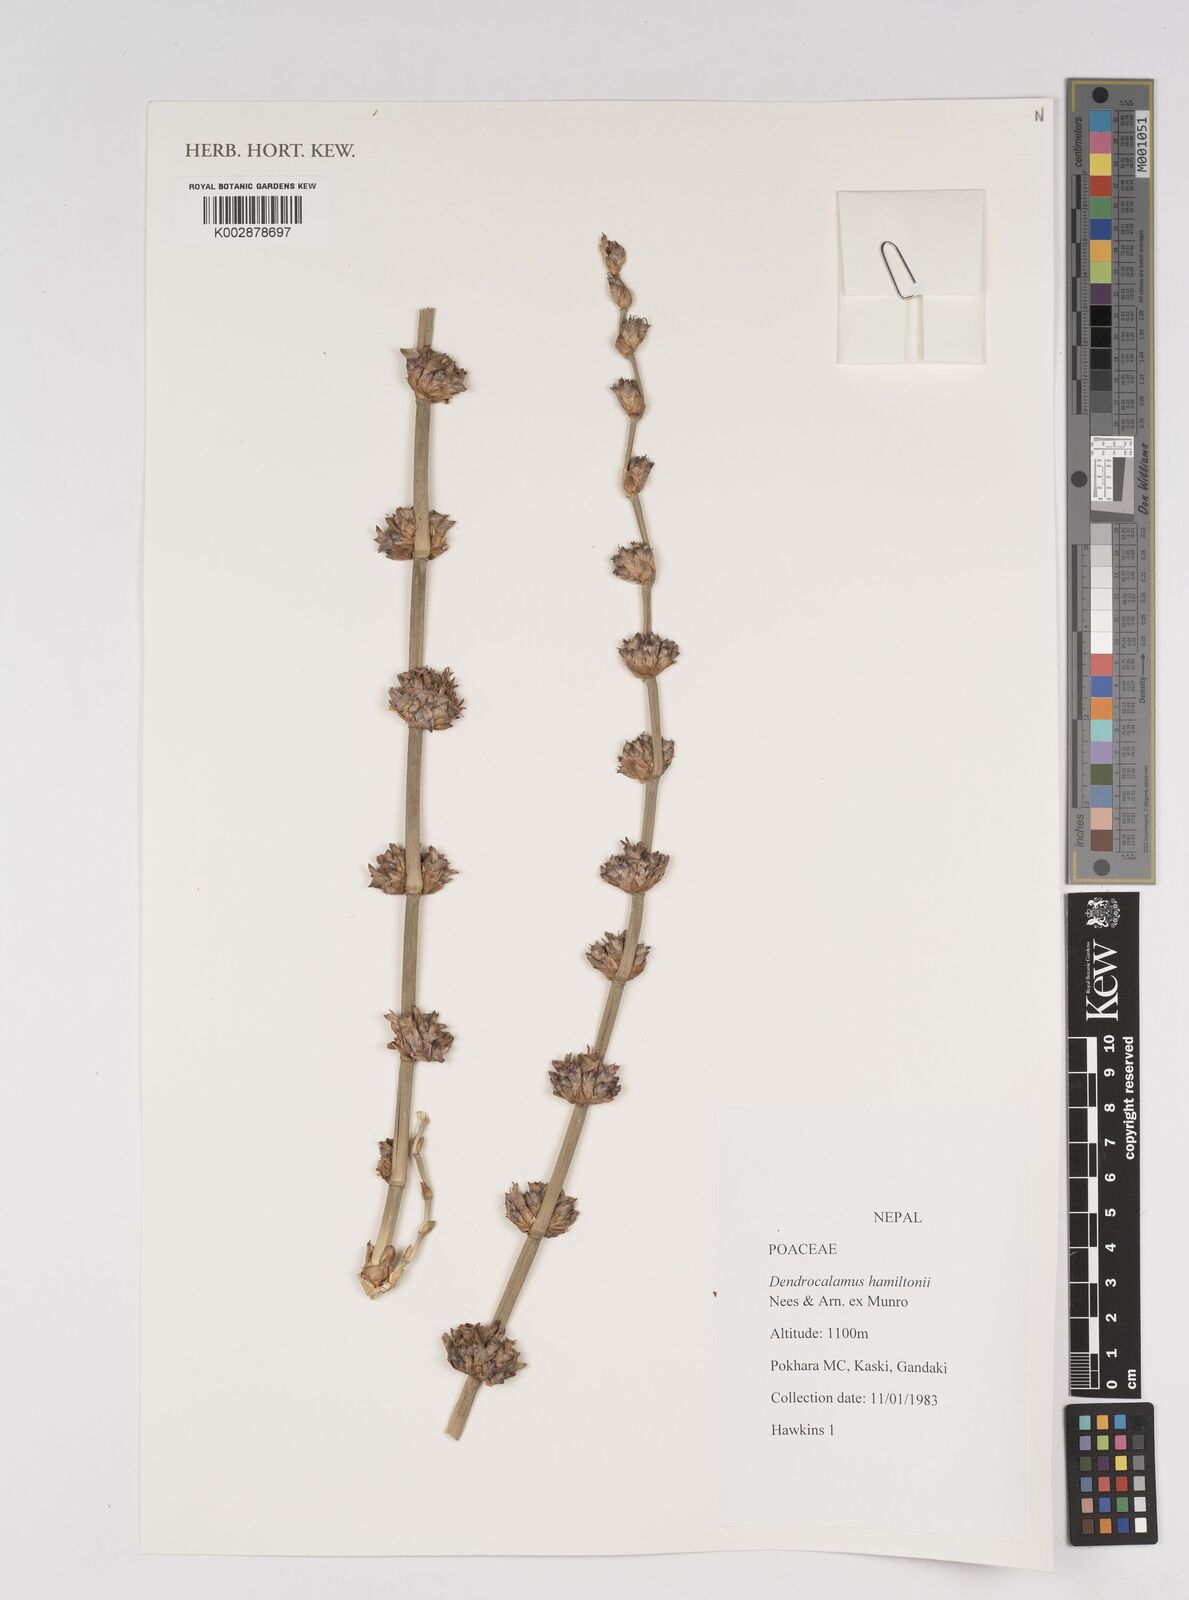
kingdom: Plantae
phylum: Tracheophyta
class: Liliopsida
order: Poales
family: Poaceae
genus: Dendrocalamus
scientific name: Dendrocalamus hamiltonii
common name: Tama bamboo
